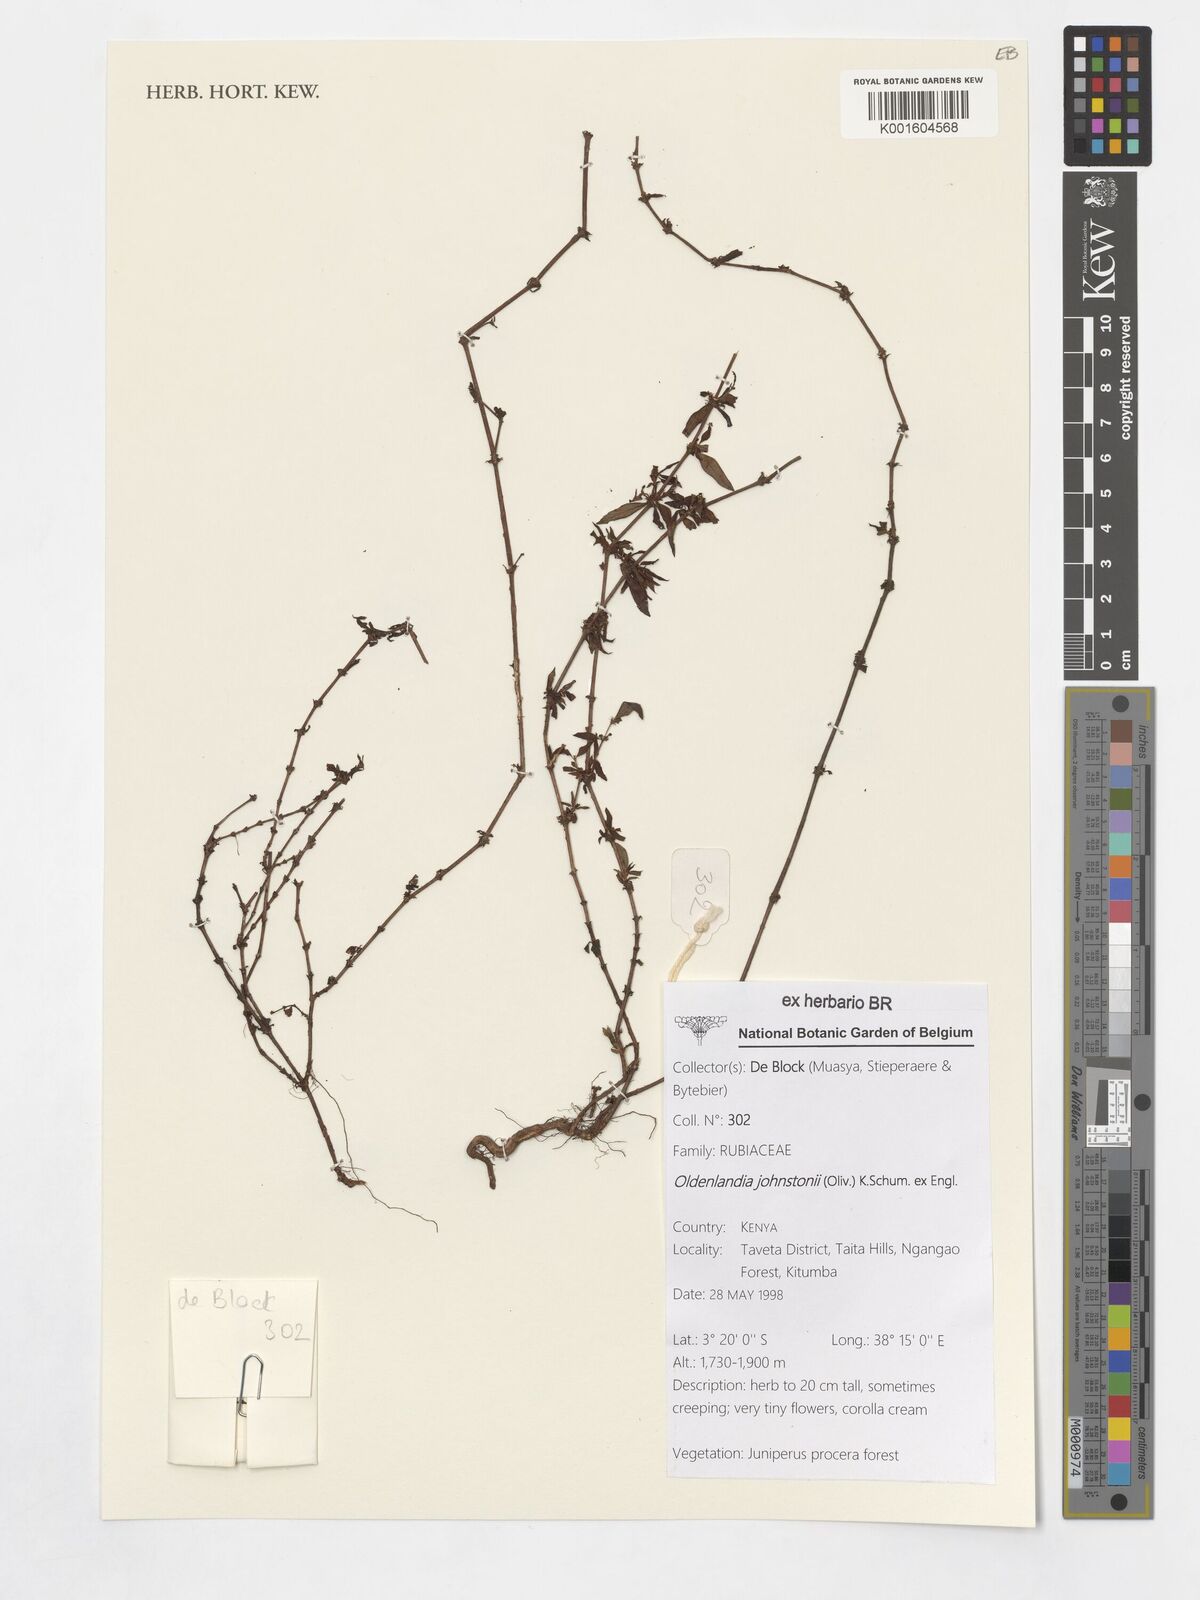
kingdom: Plantae
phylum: Tracheophyta
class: Magnoliopsida
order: Gentianales
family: Rubiaceae
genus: Oldenlandia
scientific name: Oldenlandia johnstonii
